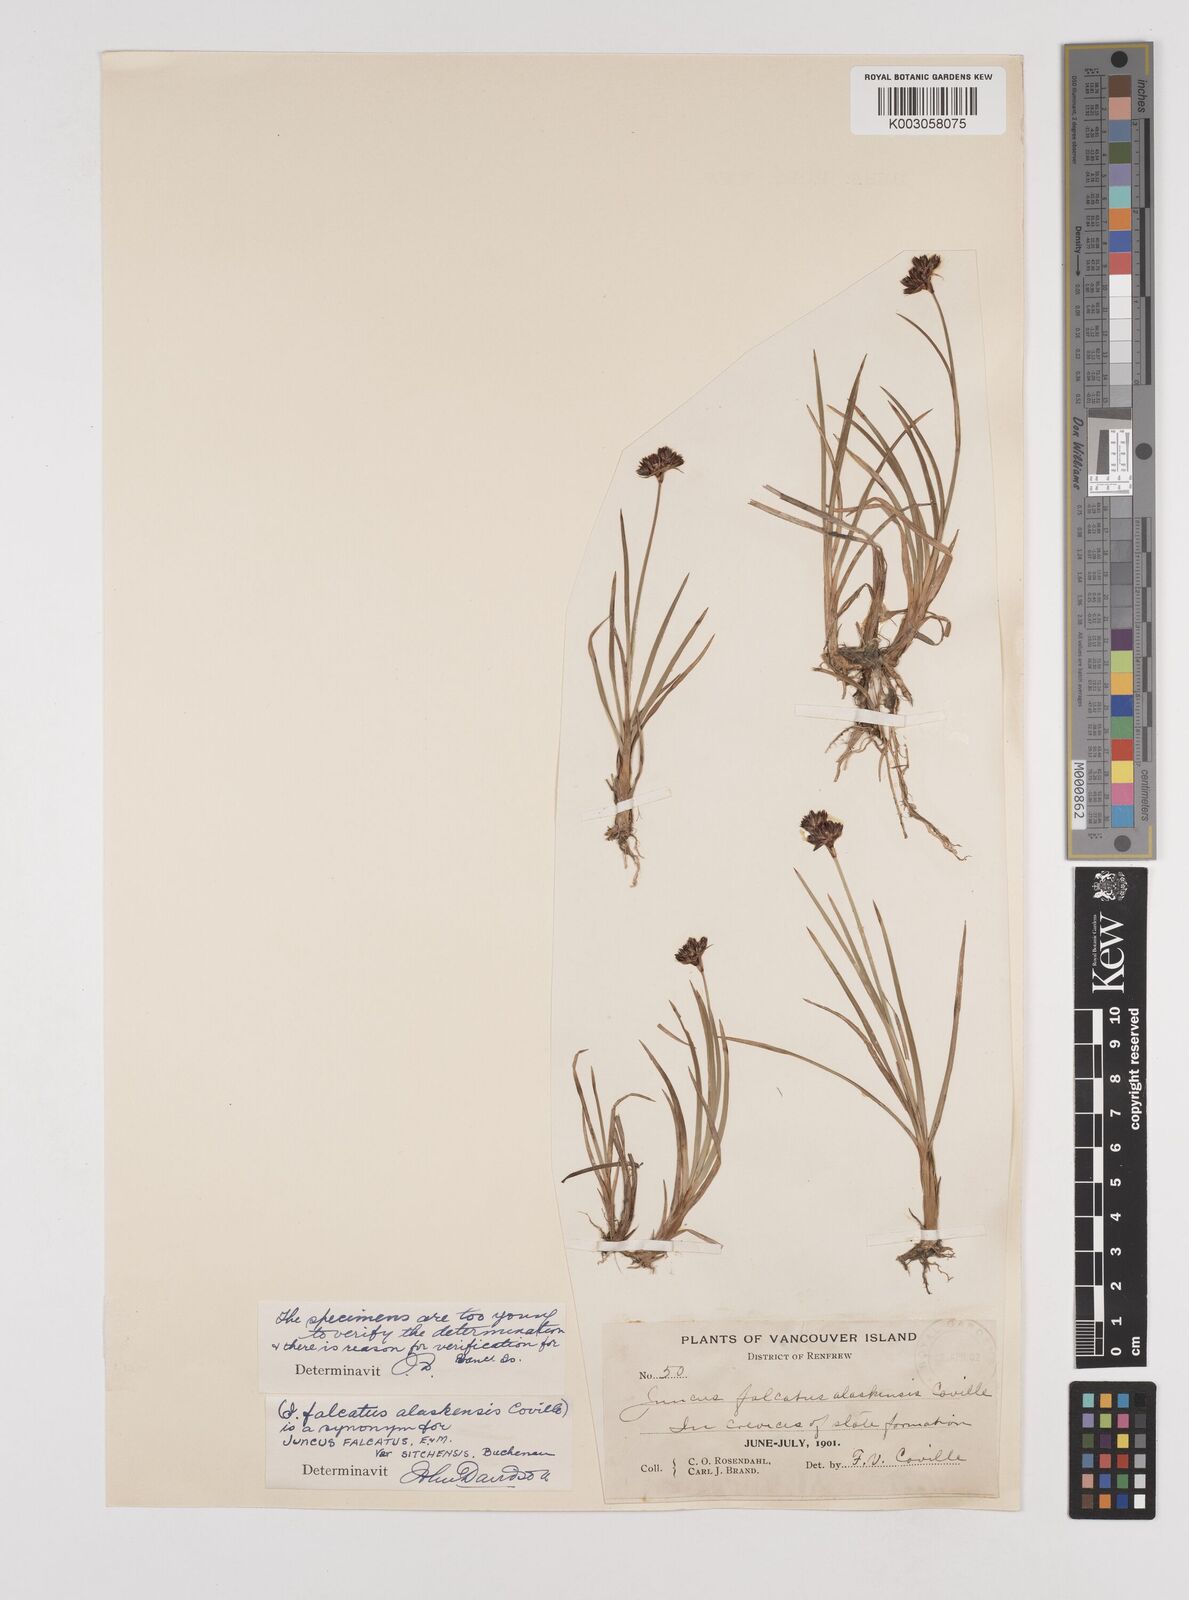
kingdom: Plantae
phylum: Tracheophyta
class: Liliopsida
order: Poales
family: Juncaceae
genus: Juncus
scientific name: Juncus falcatus
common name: Sickle-leaf rush
